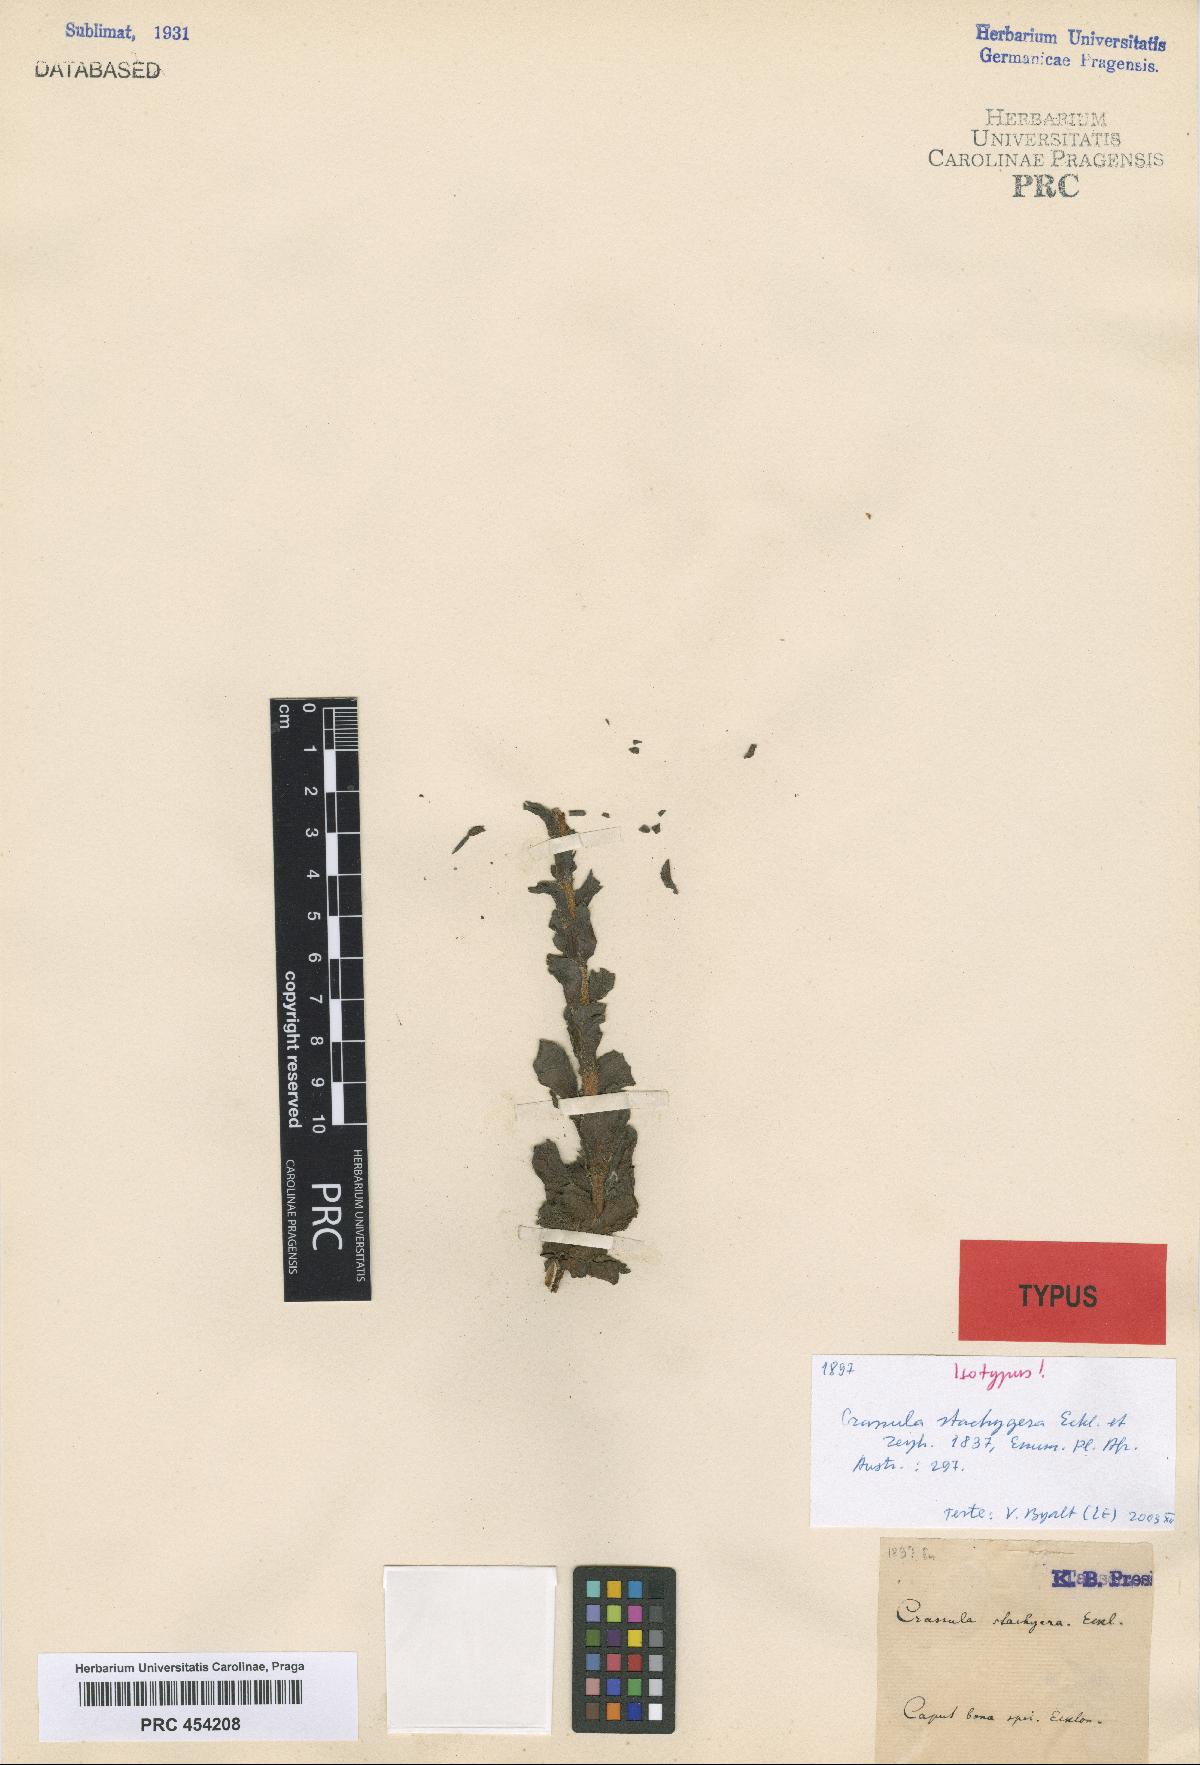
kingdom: Plantae
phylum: Tracheophyta
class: Magnoliopsida
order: Saxifragales
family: Crassulaceae
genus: Crassula
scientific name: Crassula obovata
